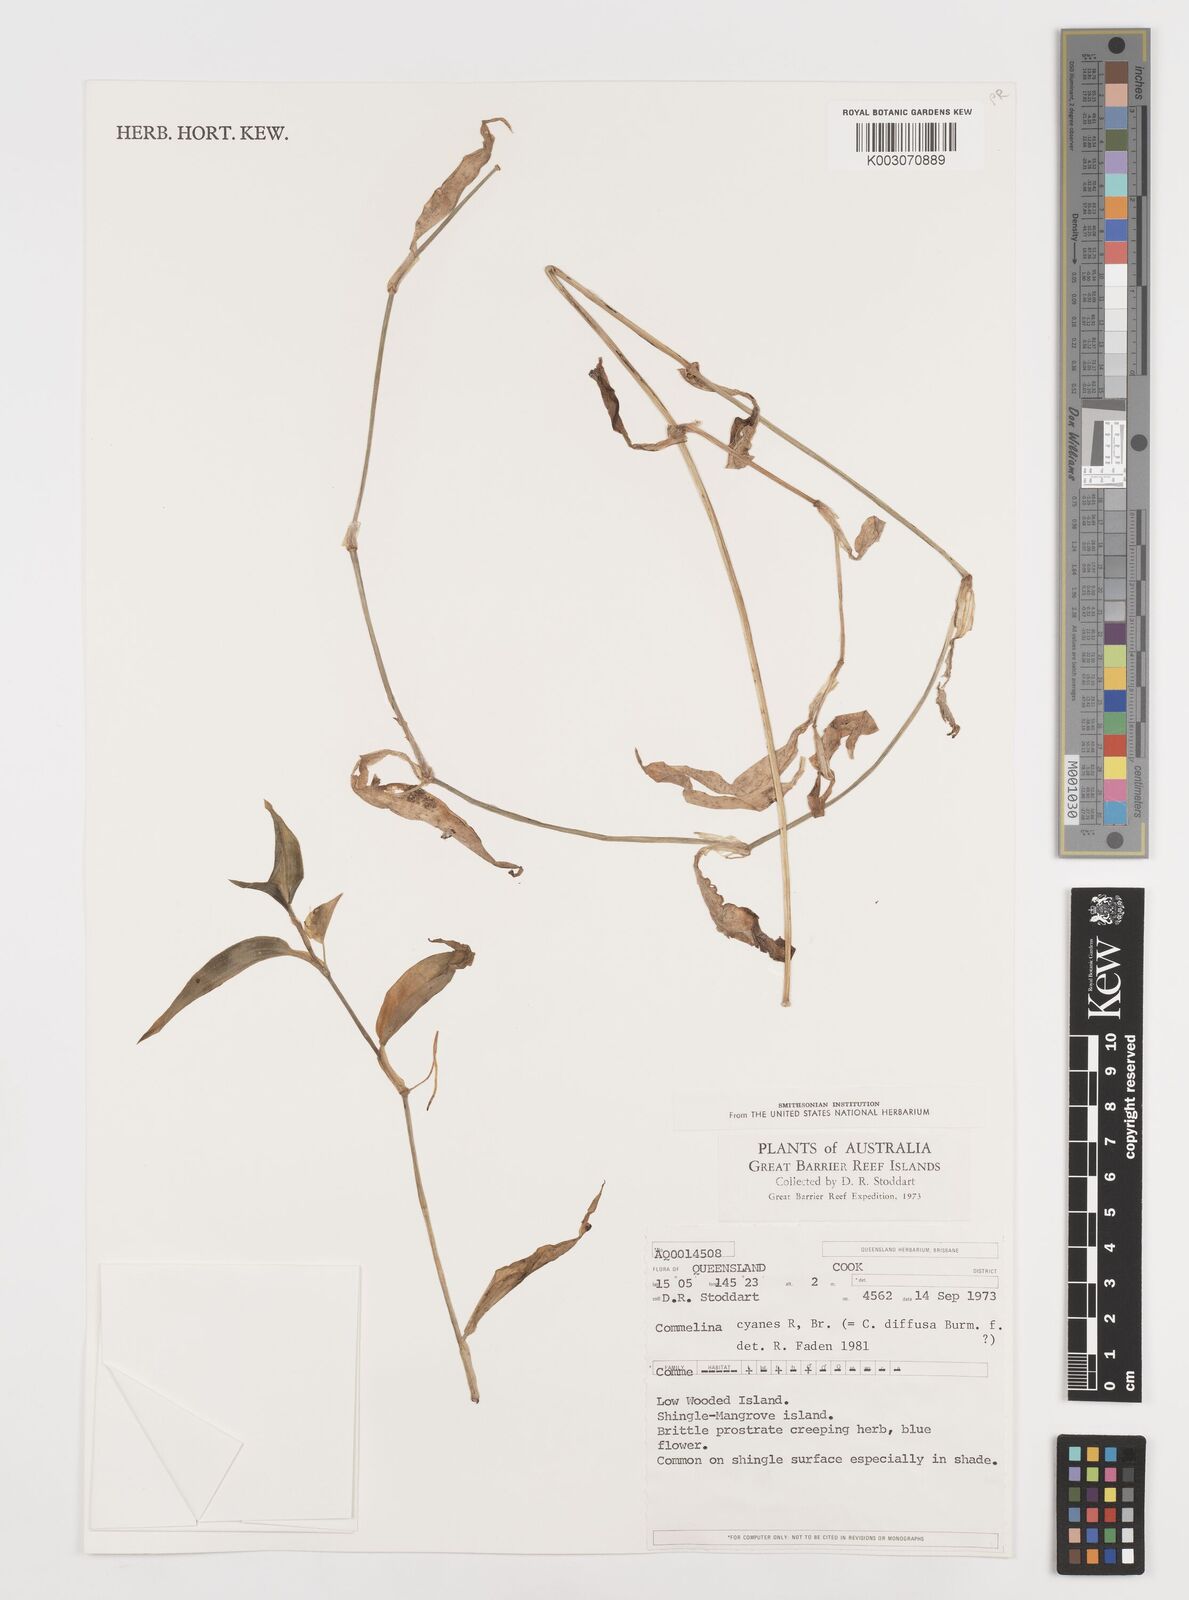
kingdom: Plantae
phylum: Tracheophyta
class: Liliopsida
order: Commelinales
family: Commelinaceae
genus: Commelina
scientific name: Commelina cyanea
